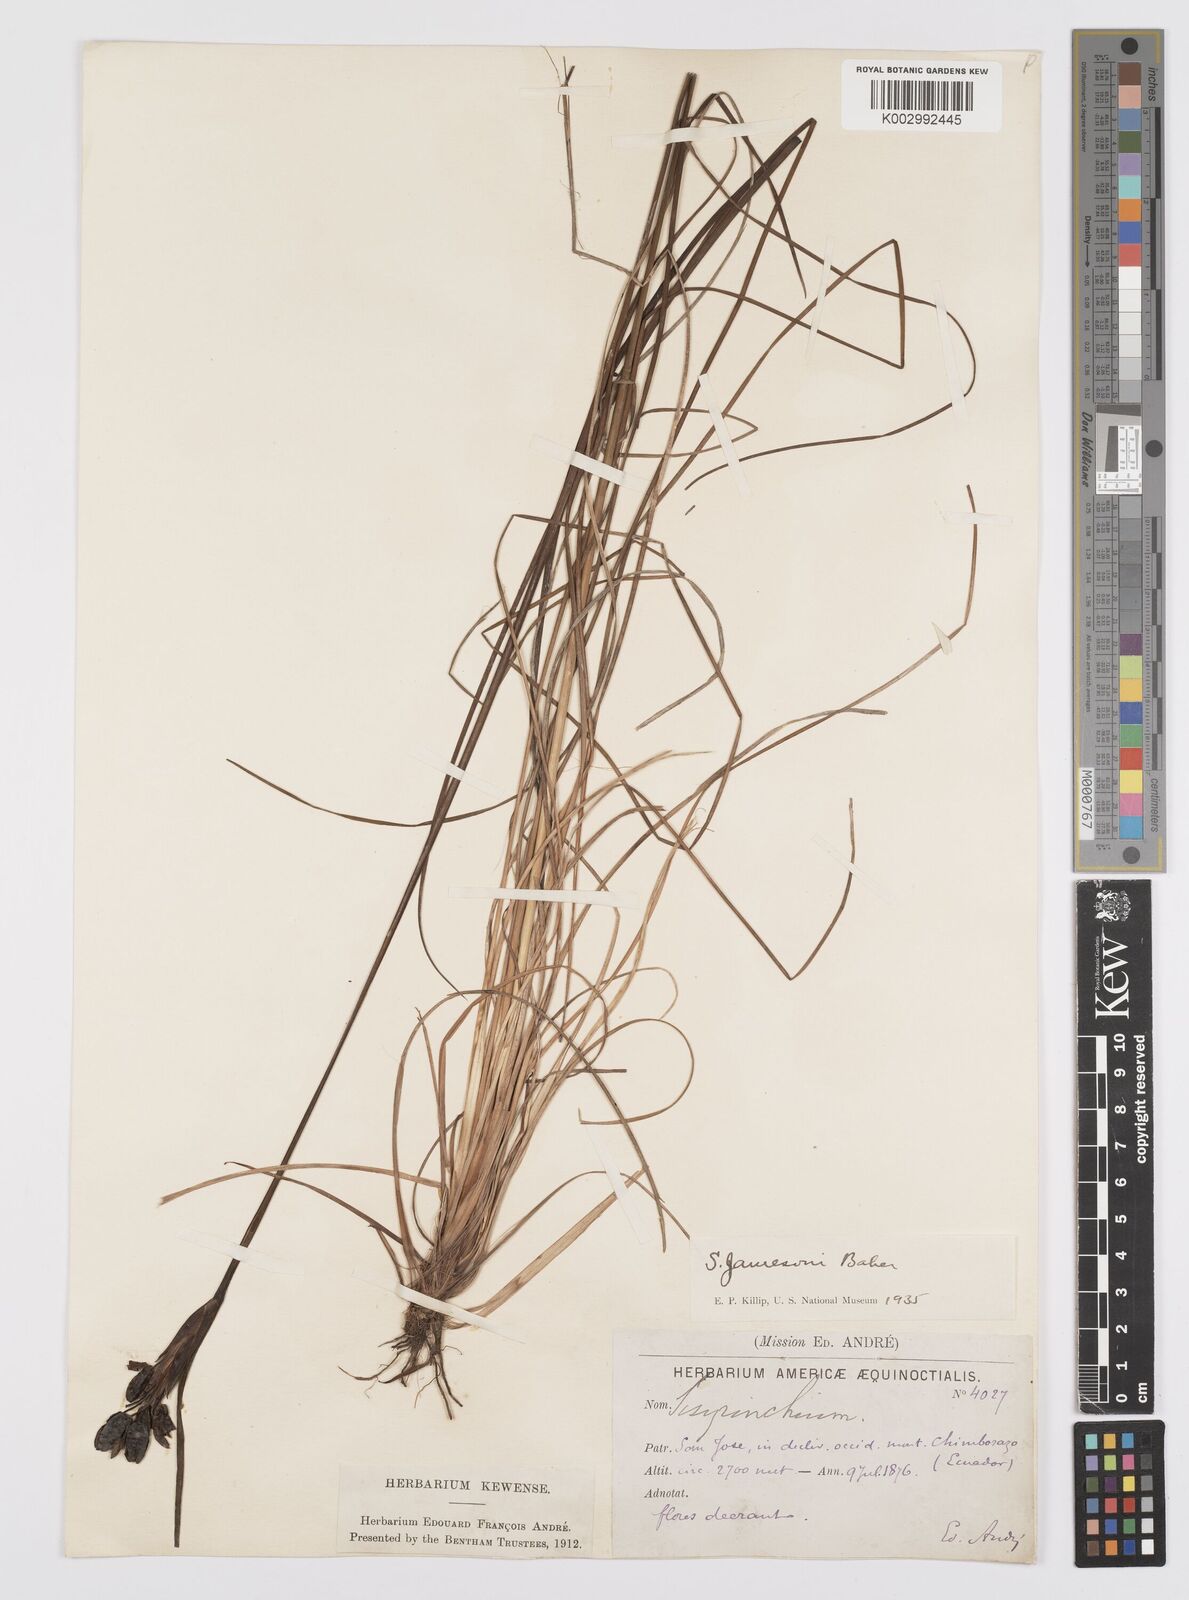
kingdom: Plantae
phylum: Tracheophyta
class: Liliopsida
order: Asparagales
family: Iridaceae
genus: Sisyrinchium
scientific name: Sisyrinchium jamesonii
